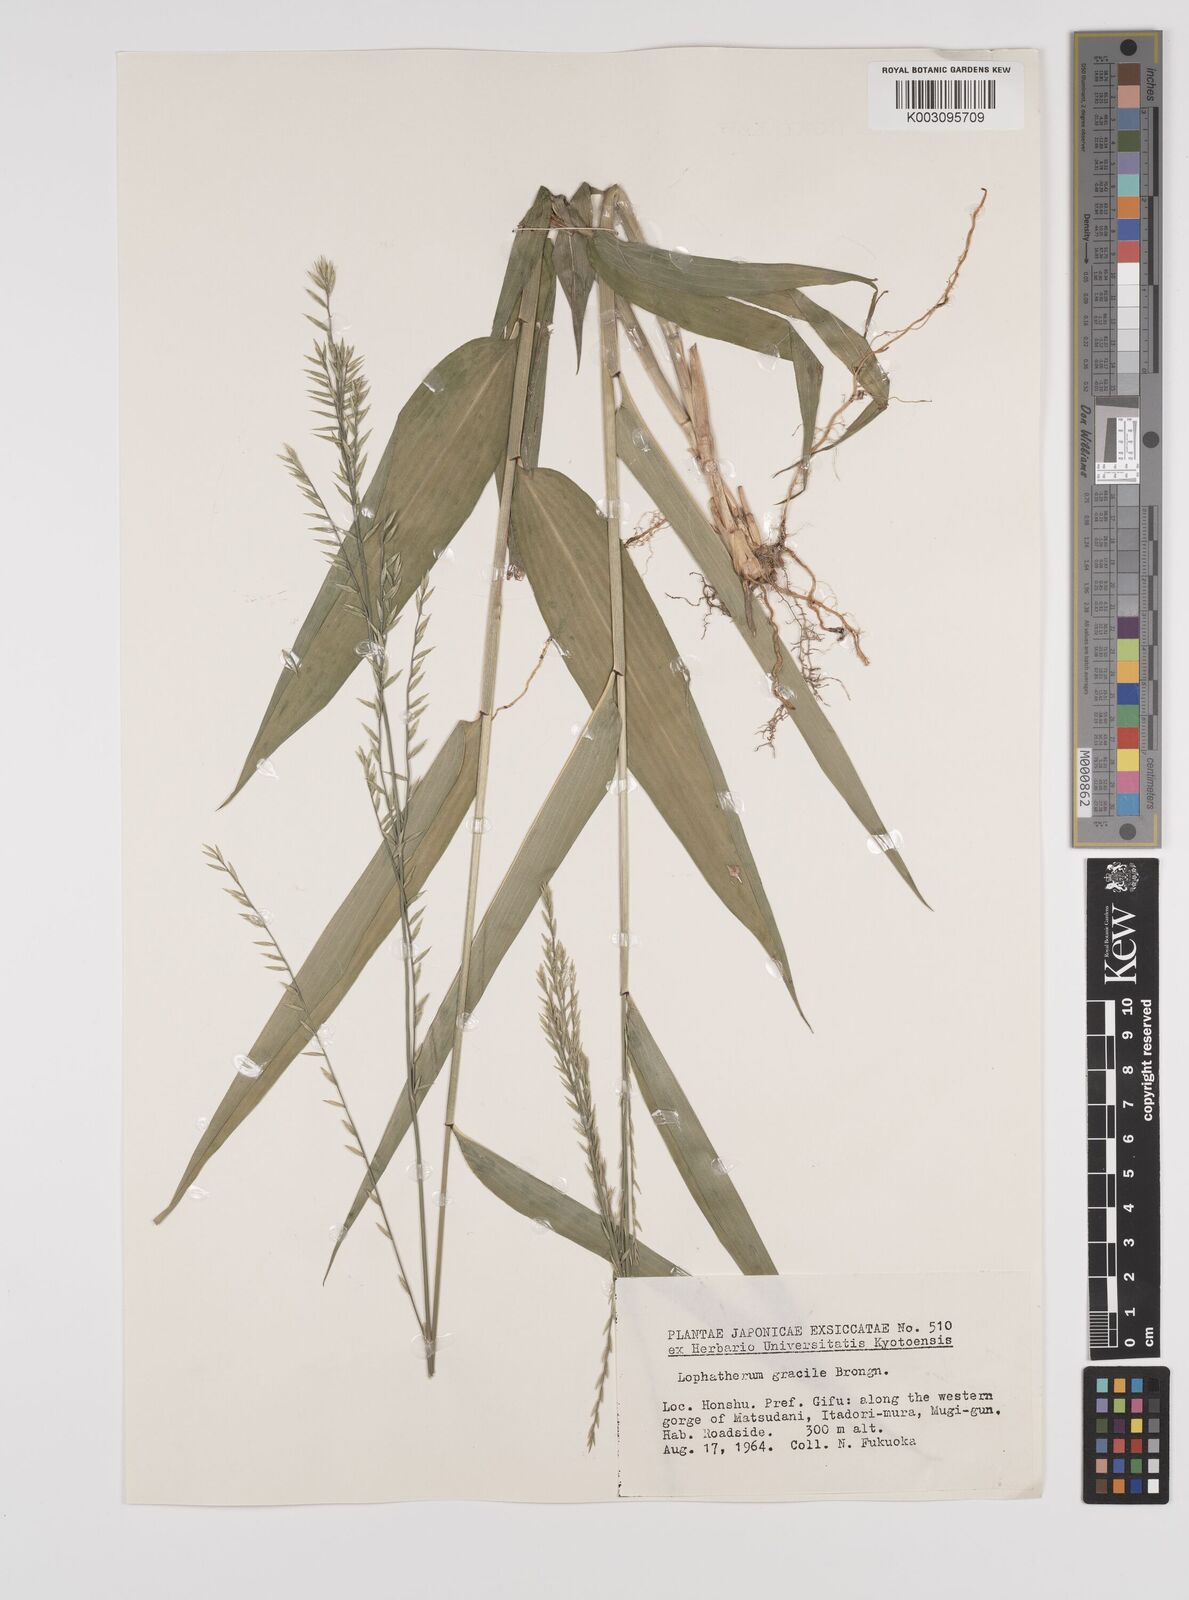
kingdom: Plantae
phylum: Tracheophyta
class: Liliopsida
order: Poales
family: Poaceae
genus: Lophatherum
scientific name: Lophatherum gracile
